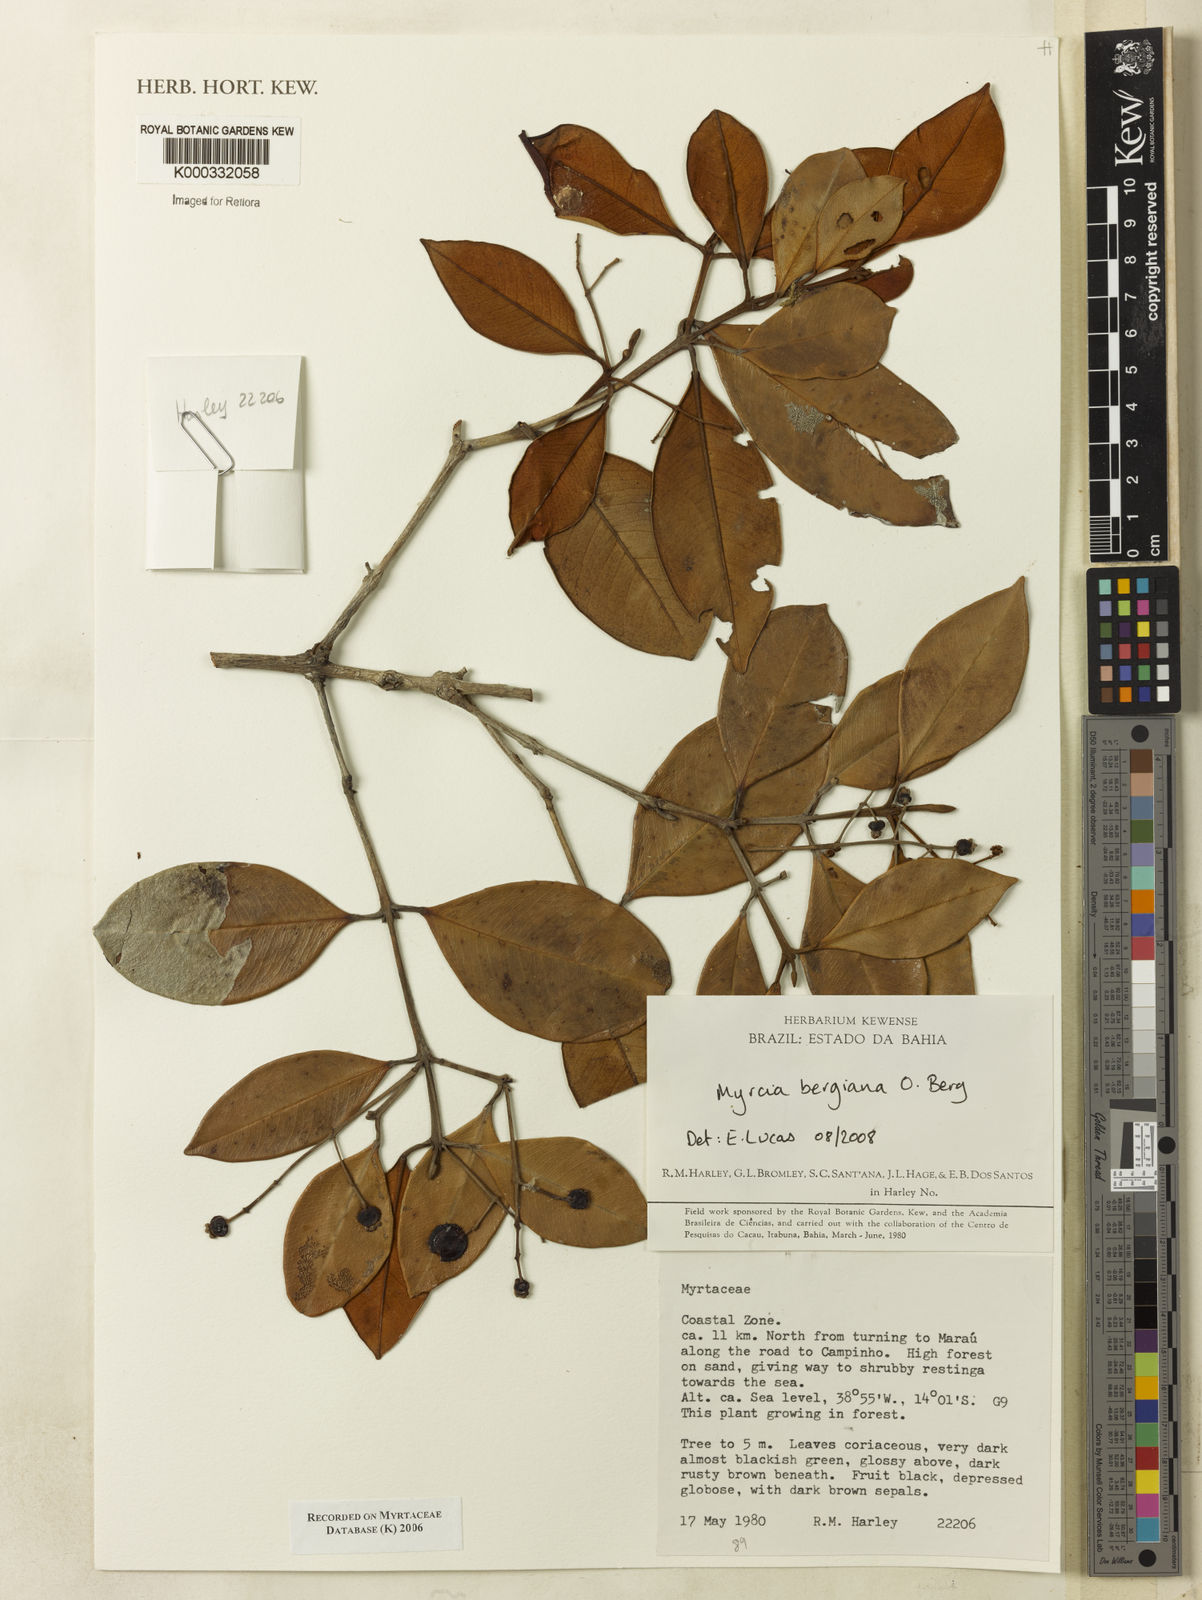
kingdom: Plantae
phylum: Tracheophyta
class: Magnoliopsida
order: Myrtales
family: Myrtaceae
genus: Myrcia
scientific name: Myrcia
